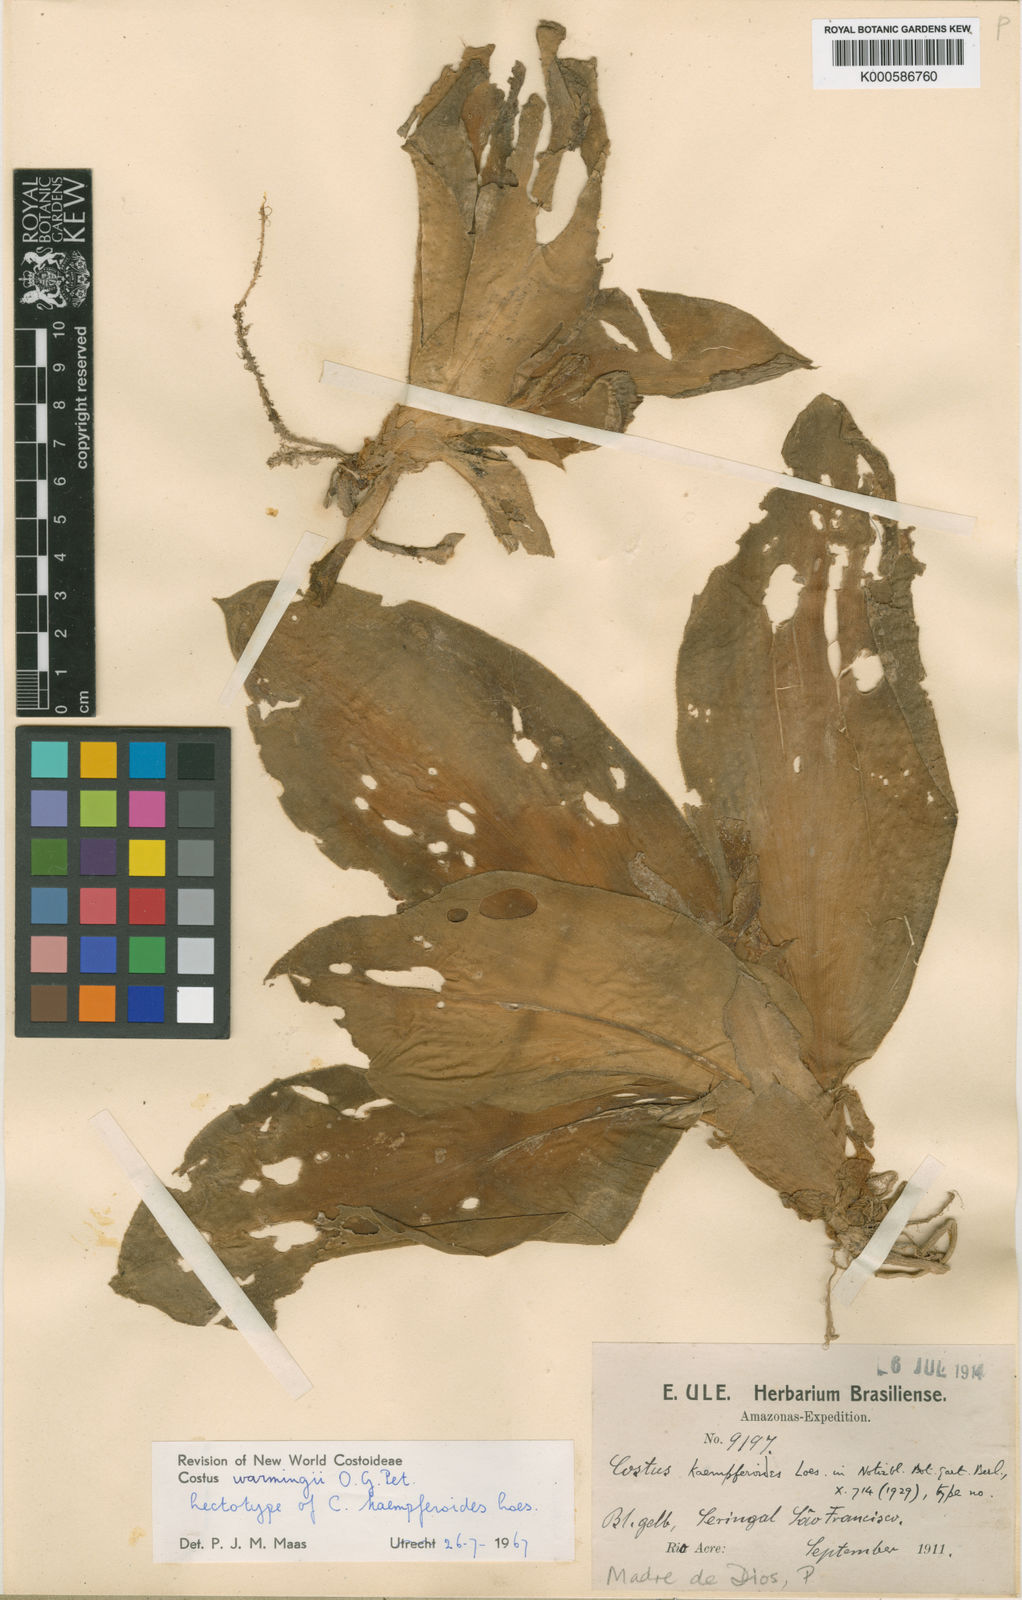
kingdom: Plantae
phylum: Tracheophyta
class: Liliopsida
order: Zingiberales
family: Costaceae
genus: Chamaecostus
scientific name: Chamaecostus subsessilis
